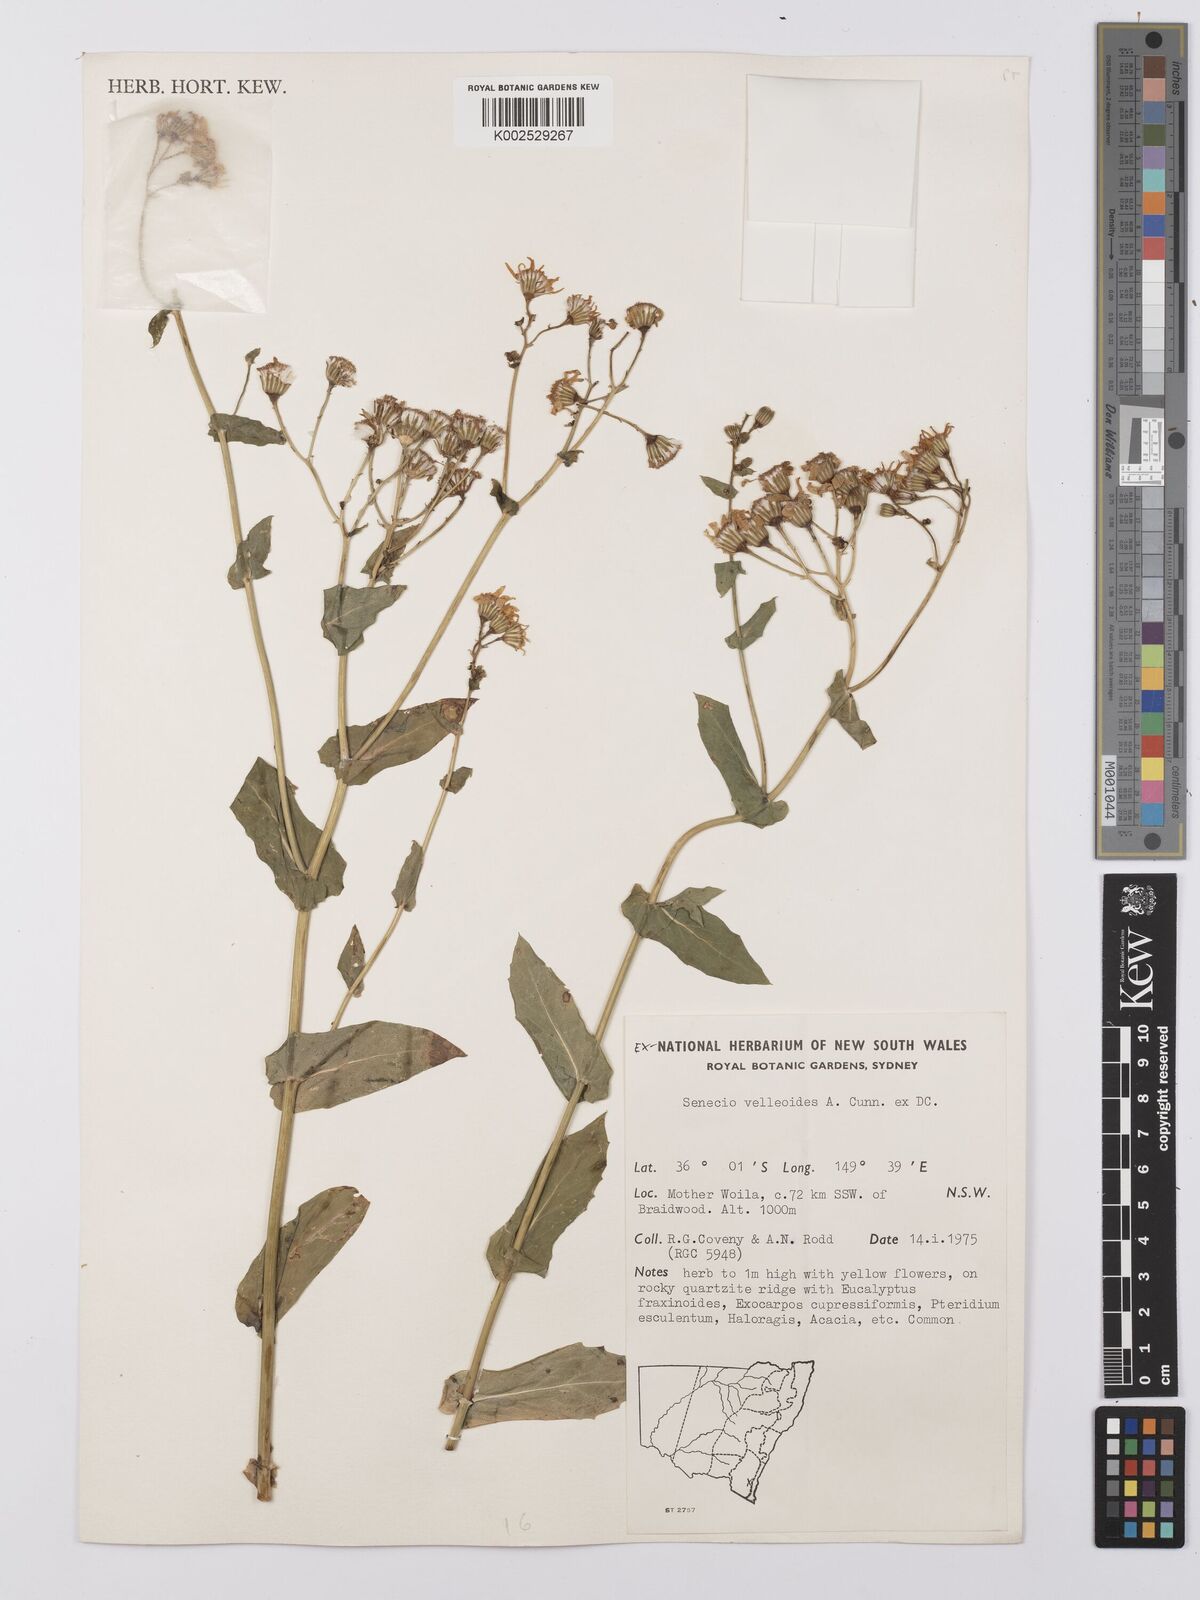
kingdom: Plantae
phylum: Tracheophyta
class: Magnoliopsida
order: Asterales
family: Asteraceae
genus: Lordhowea
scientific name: Lordhowea velleioides
